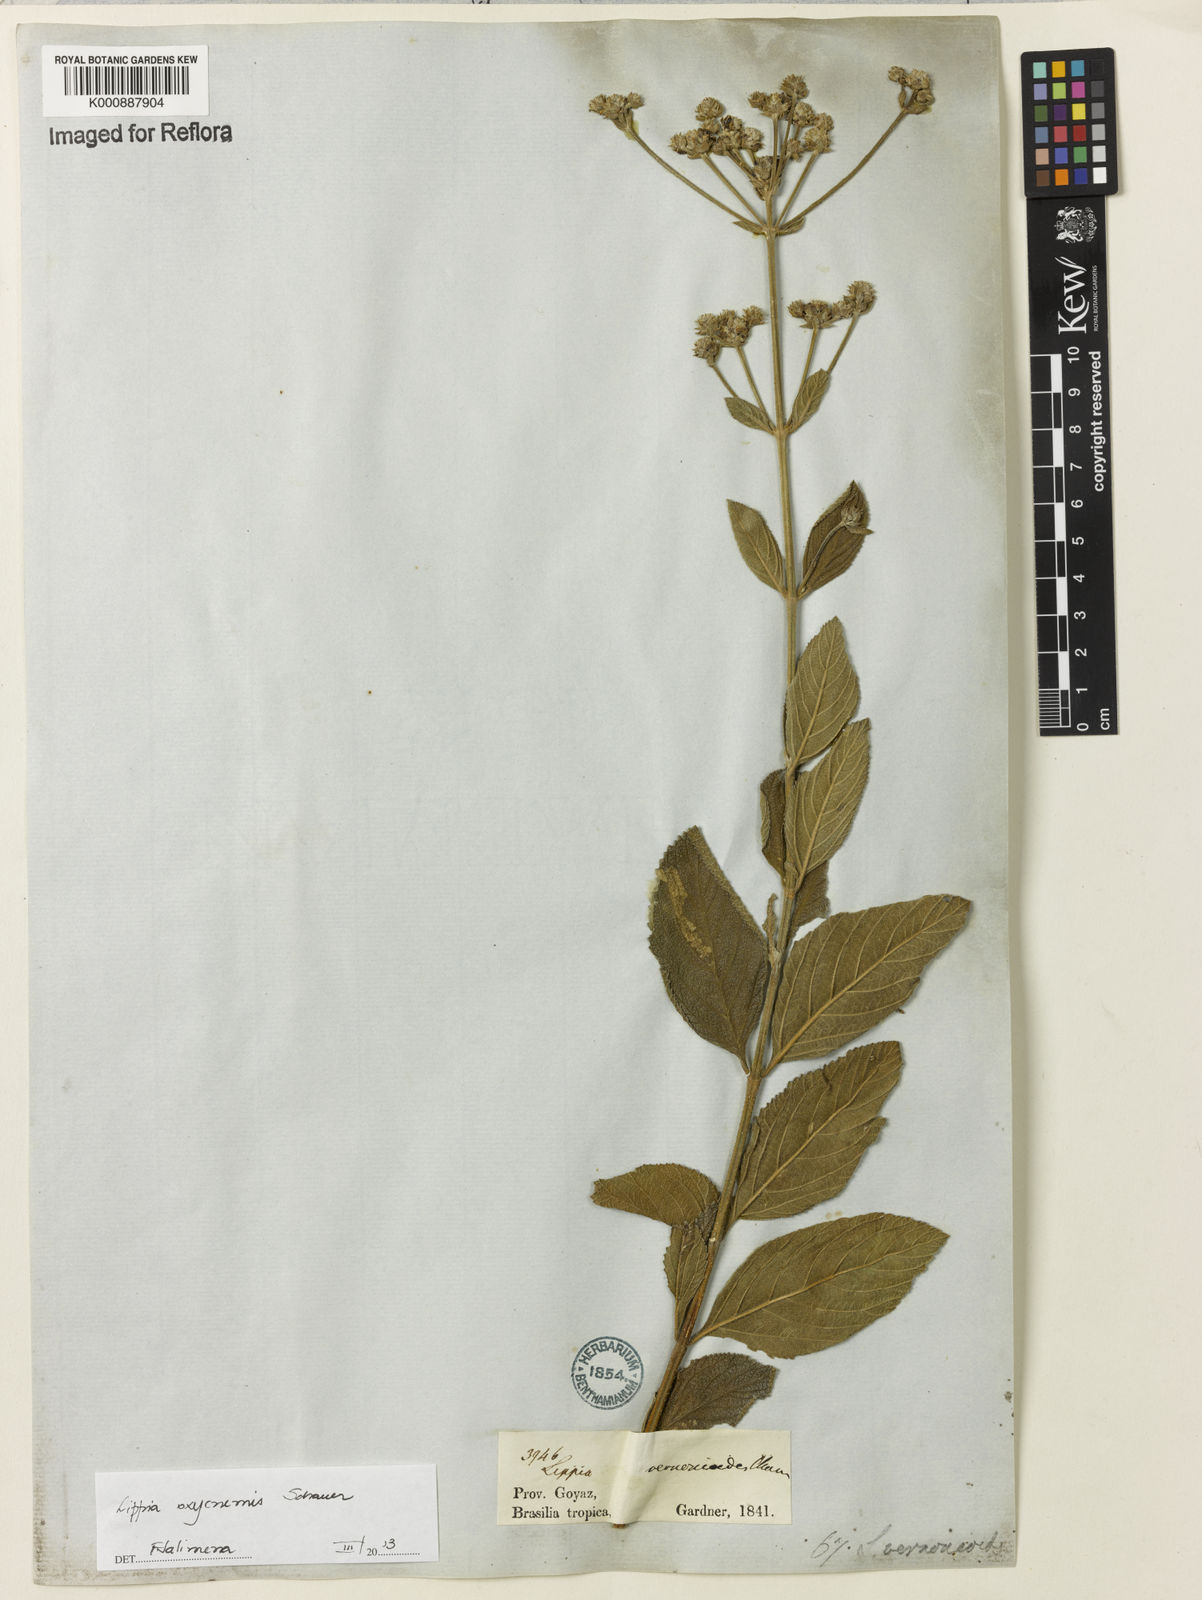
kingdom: Plantae
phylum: Tracheophyta
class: Magnoliopsida
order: Lamiales
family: Verbenaceae
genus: Lippia
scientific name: Lippia oxycnemis
